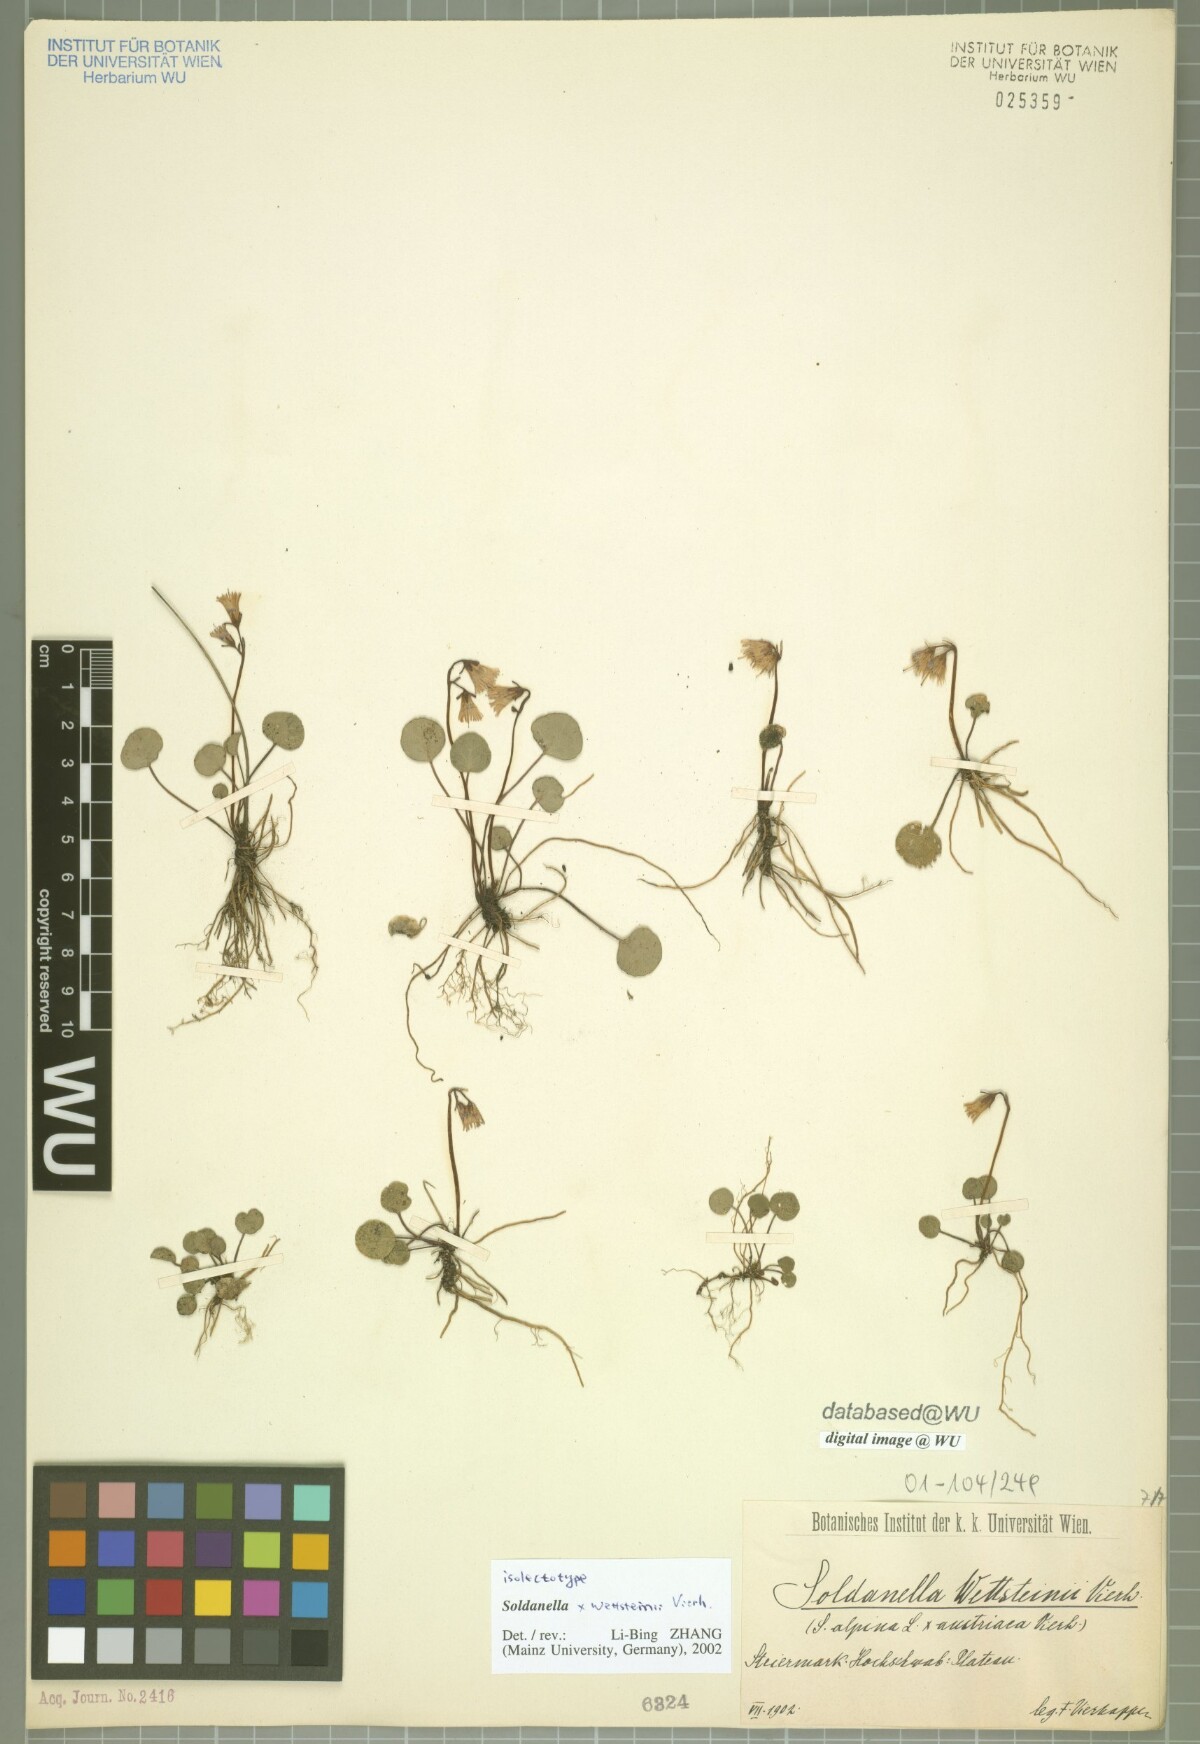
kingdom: Plantae
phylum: Tracheophyta
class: Magnoliopsida
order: Ericales
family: Primulaceae
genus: Soldanella
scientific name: Soldanella wettsteinii
